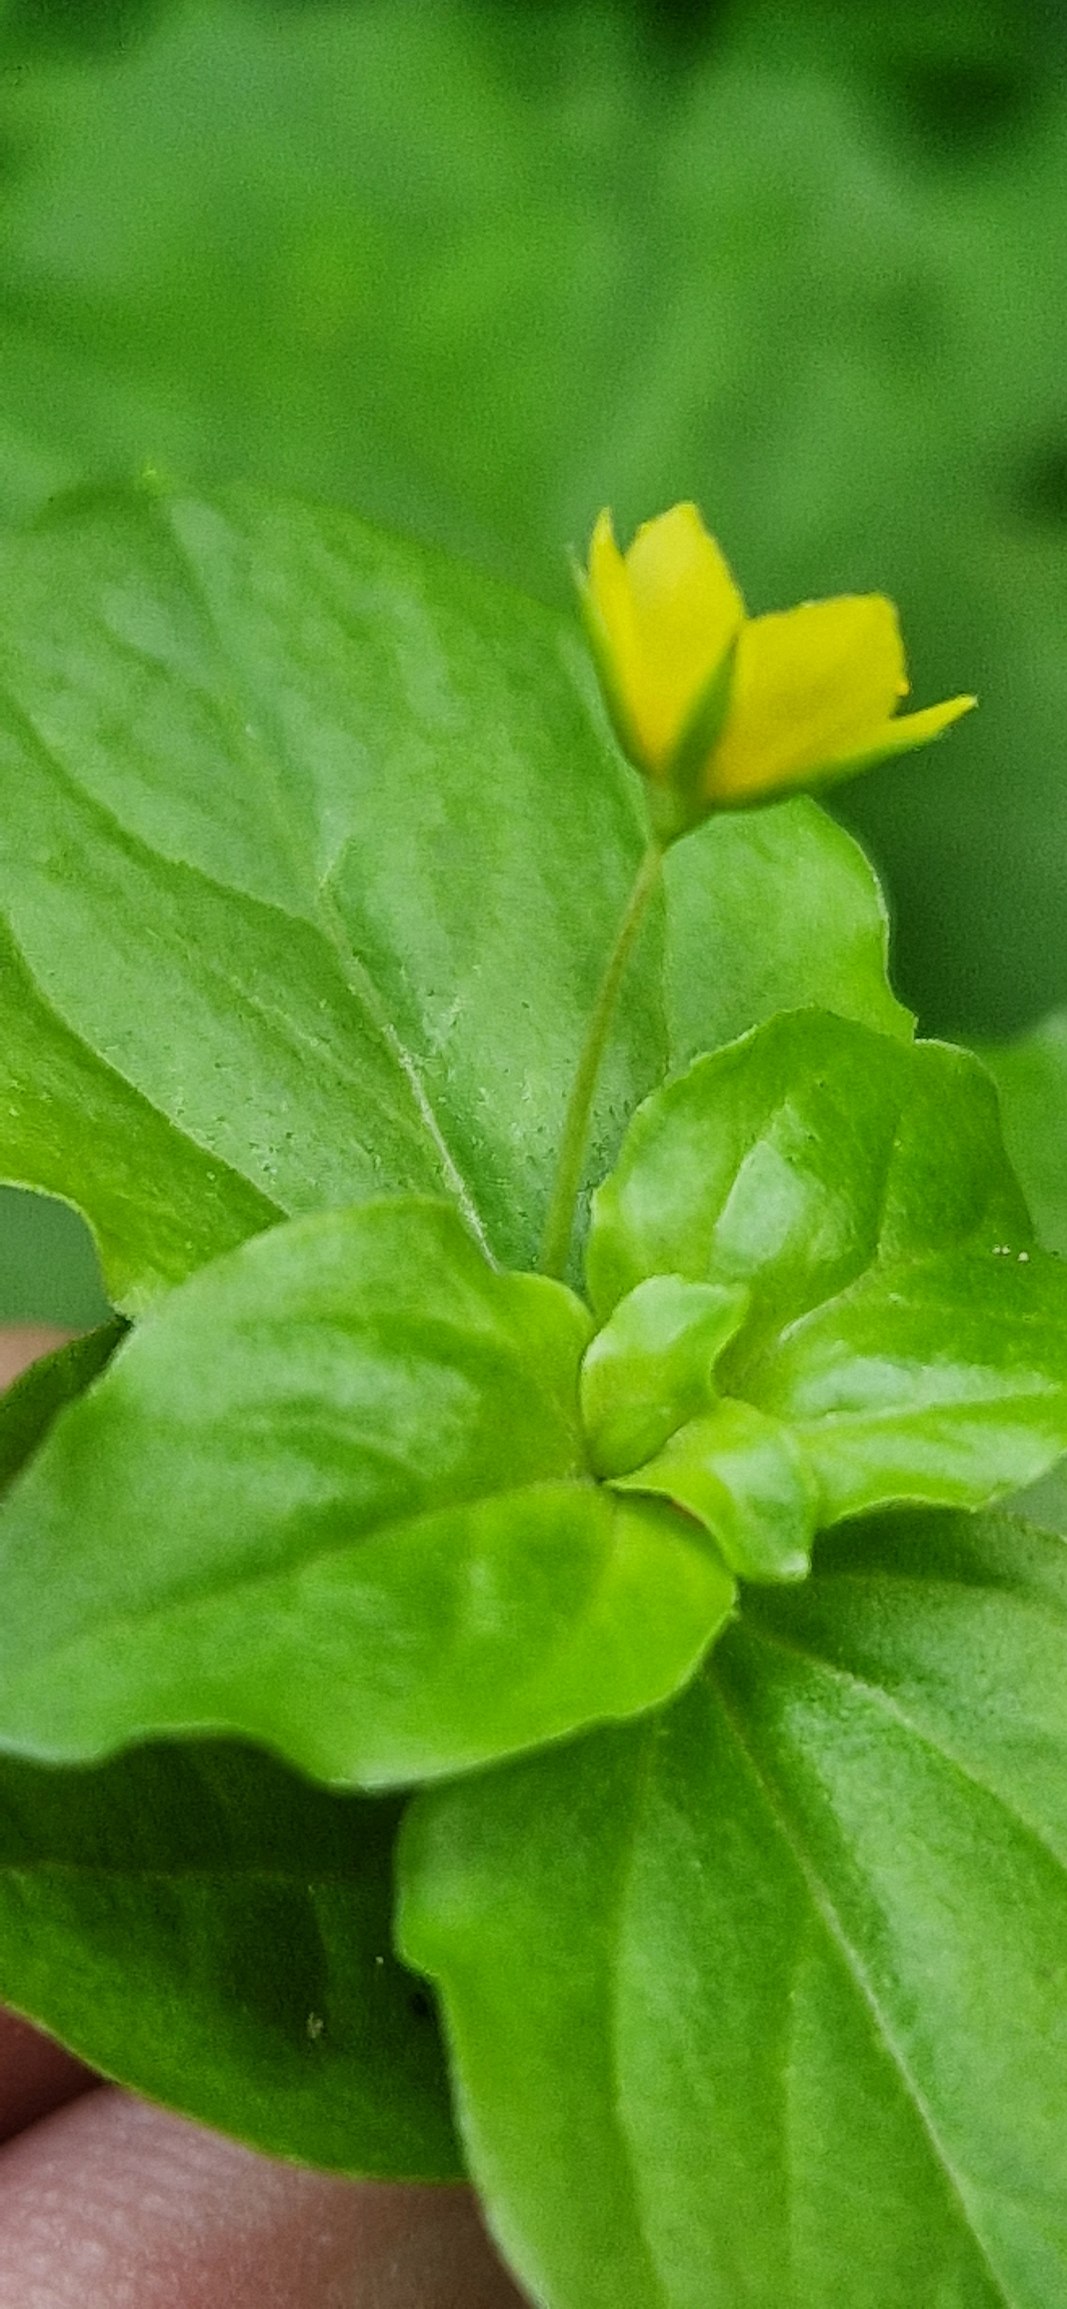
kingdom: Plantae
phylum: Tracheophyta
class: Magnoliopsida
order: Ericales
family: Primulaceae
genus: Lysimachia
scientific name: Lysimachia nemorum
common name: Lund-fredløs
